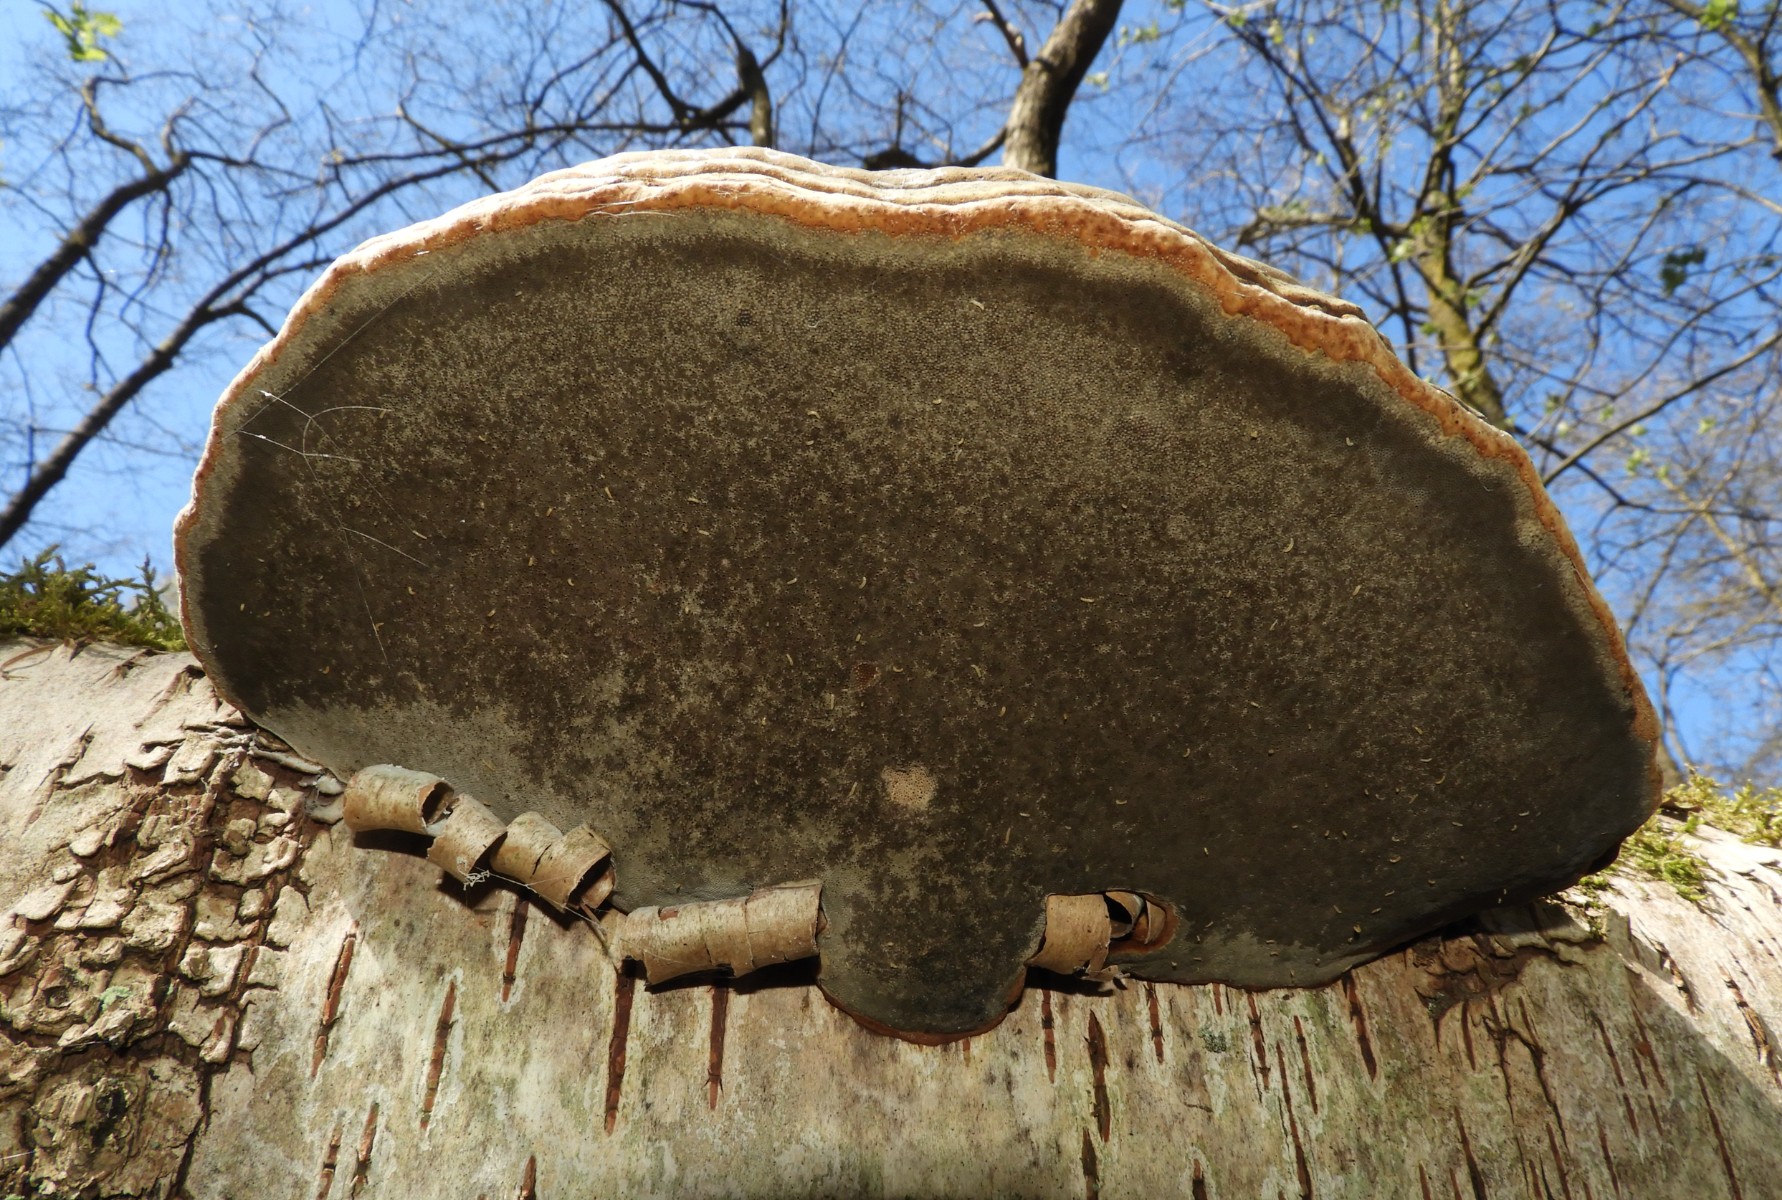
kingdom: Fungi
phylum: Basidiomycota
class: Agaricomycetes
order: Polyporales
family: Polyporaceae
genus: Fomes
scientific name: Fomes fomentarius
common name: tøndersvamp
